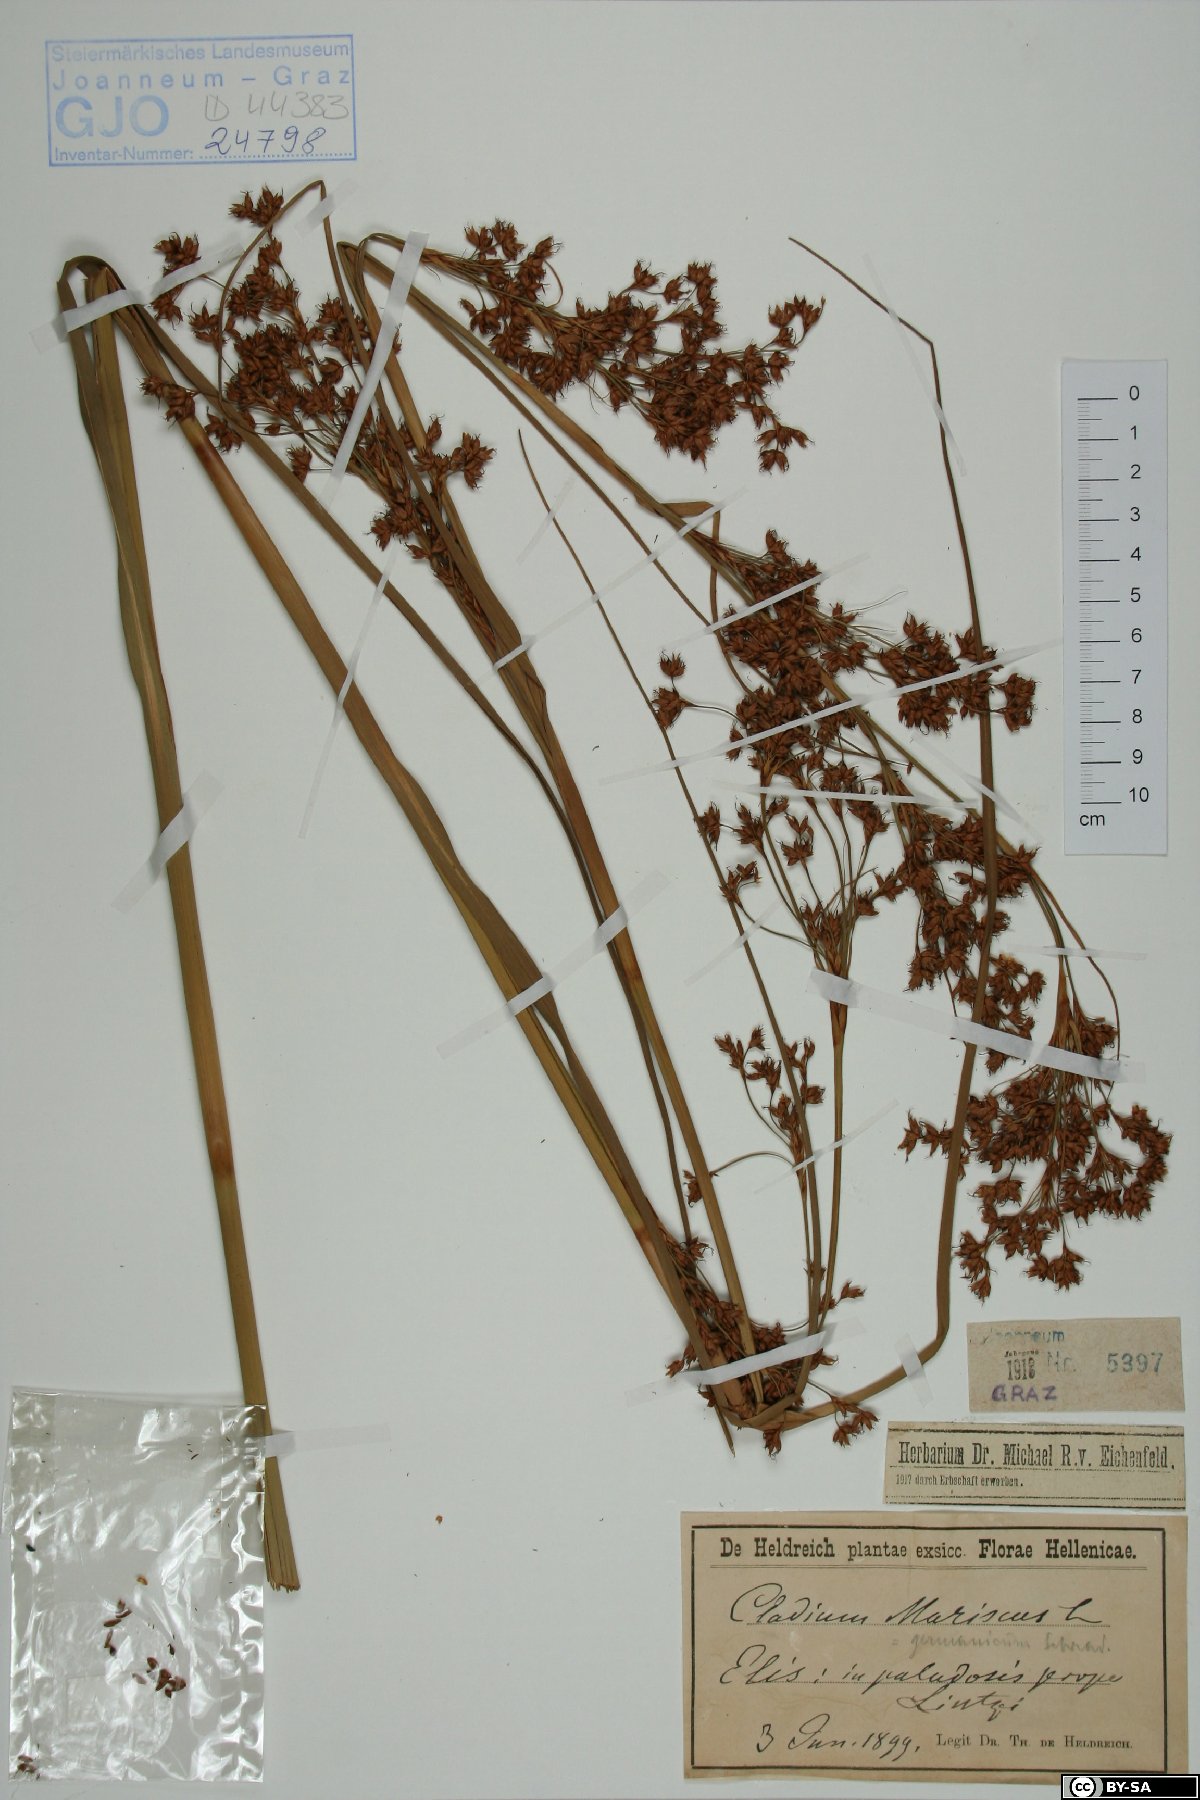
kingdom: Plantae
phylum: Tracheophyta
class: Liliopsida
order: Poales
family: Cyperaceae
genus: Cladium
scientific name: Cladium mariscus
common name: Great fen-sedge
